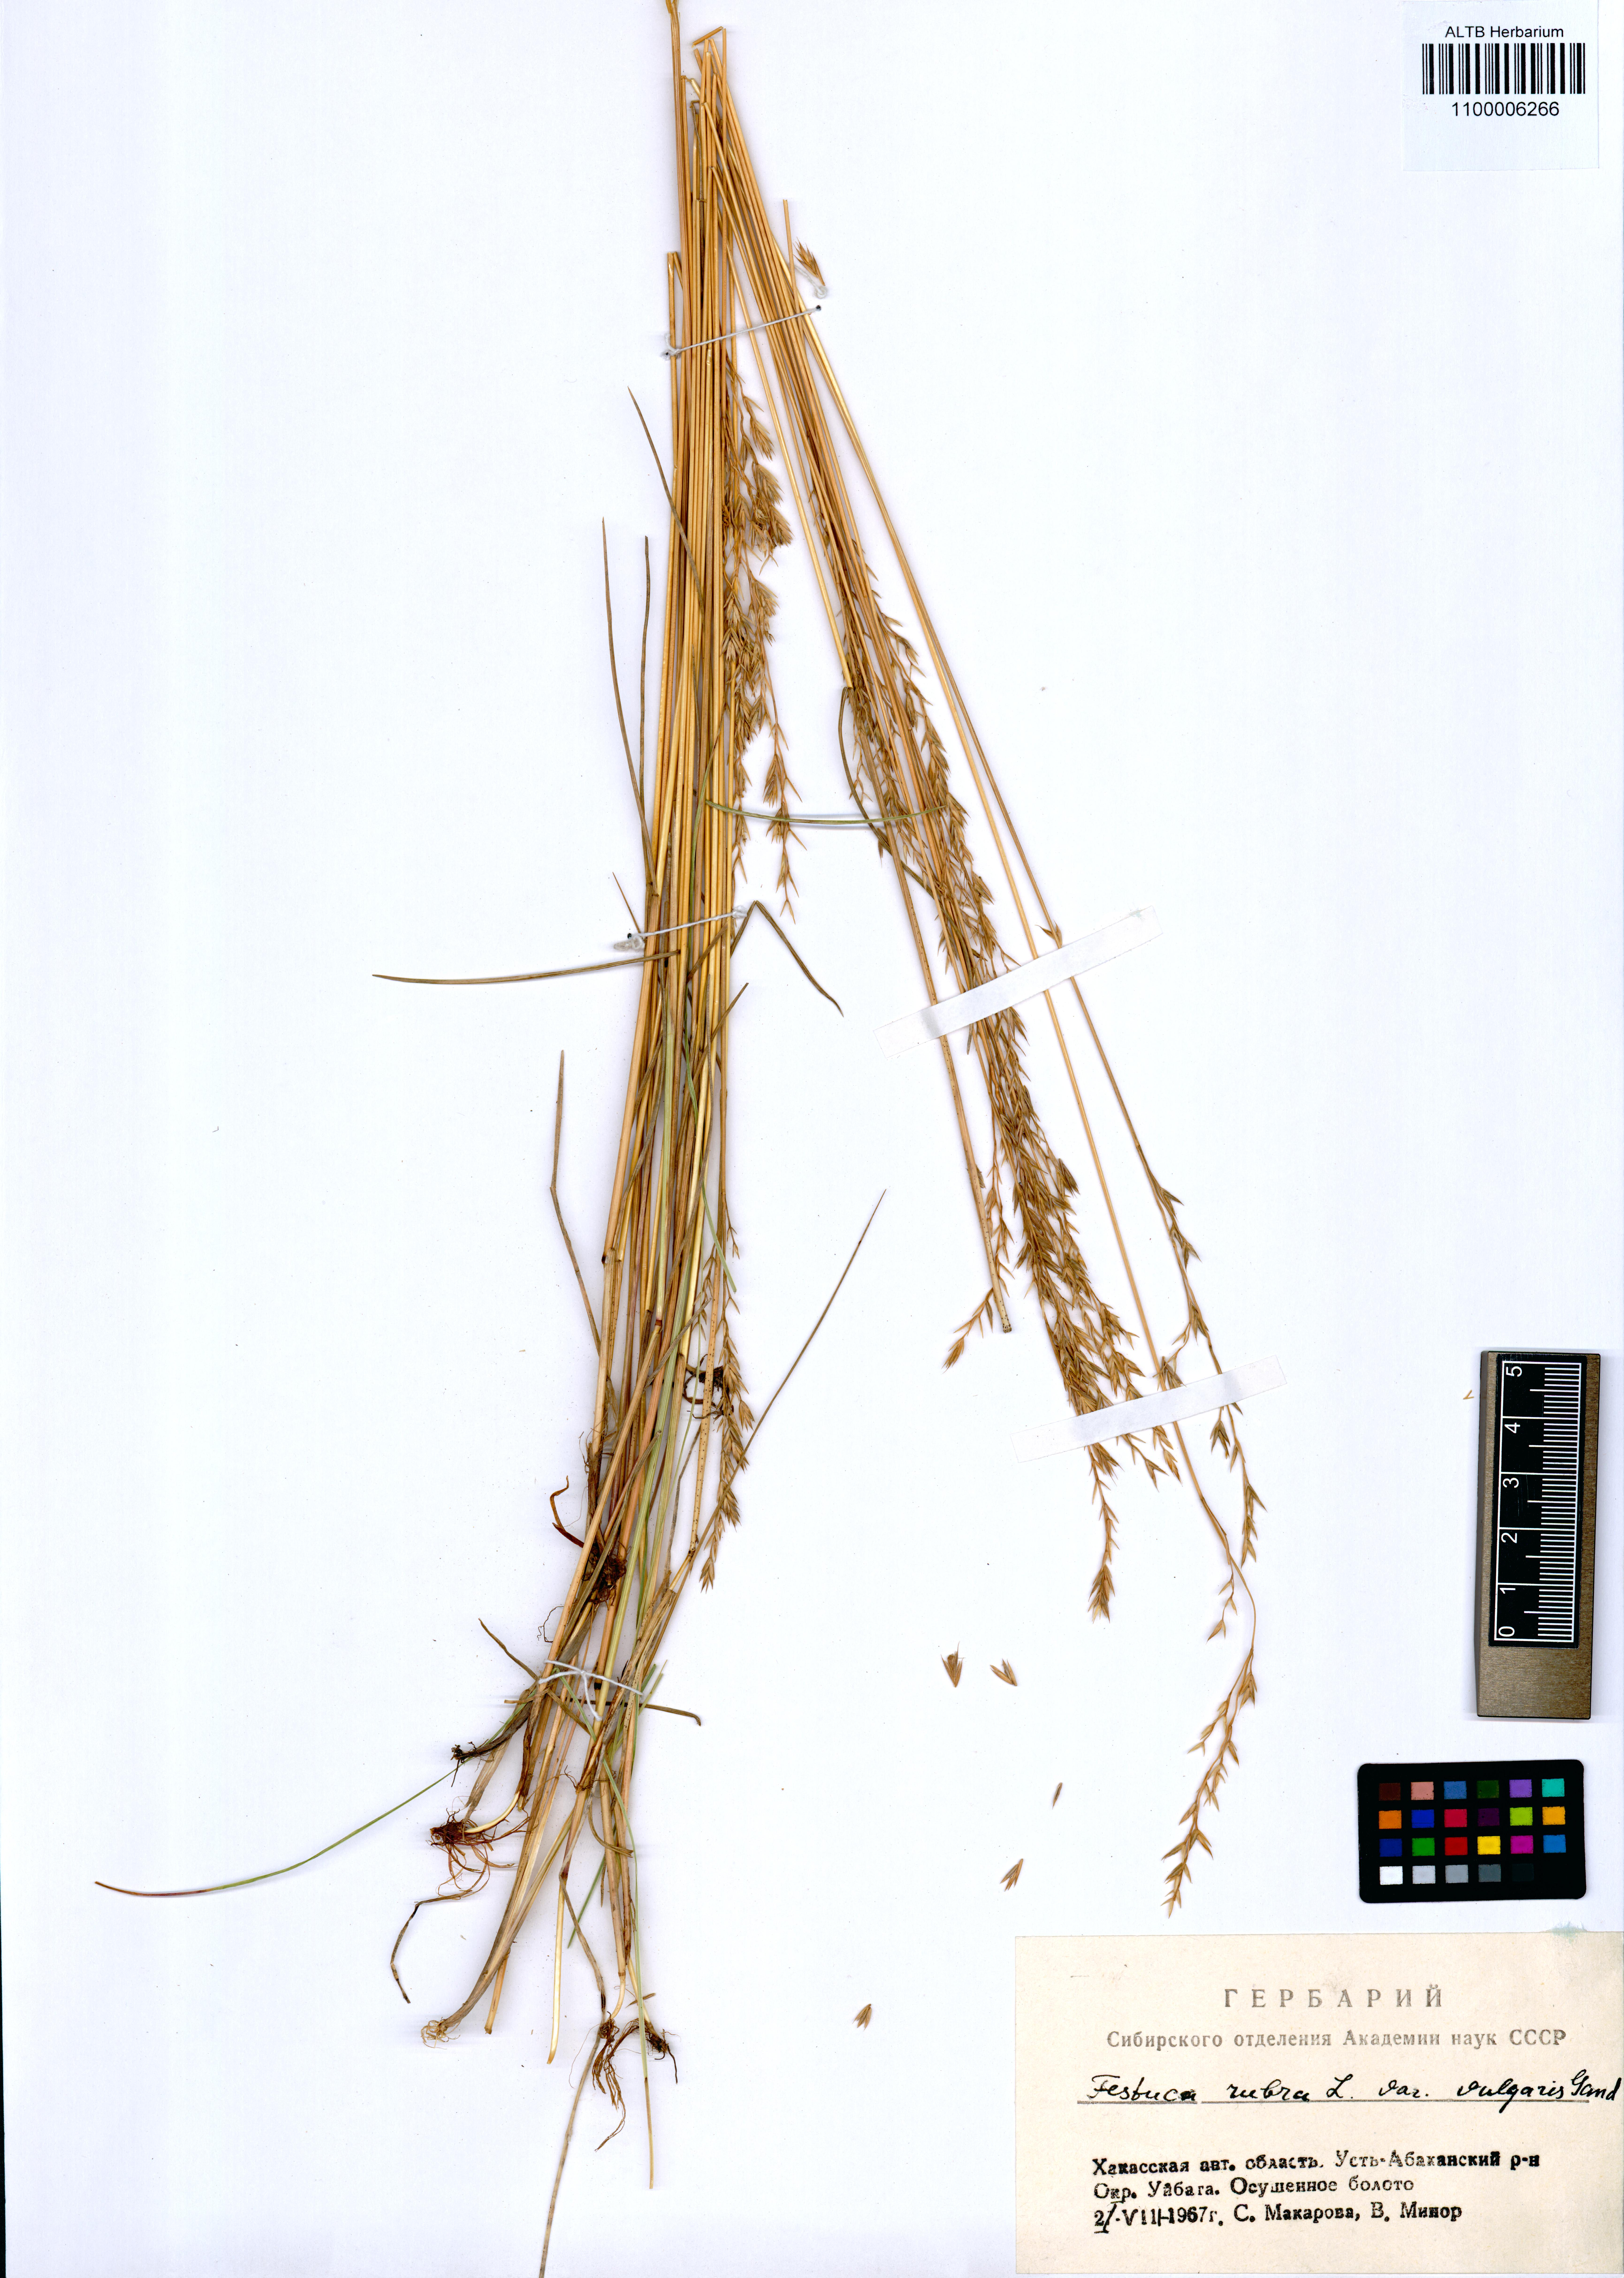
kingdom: Plantae
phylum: Tracheophyta
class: Liliopsida
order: Poales
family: Poaceae
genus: Festuca
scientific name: Festuca rubra
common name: Red fescue
